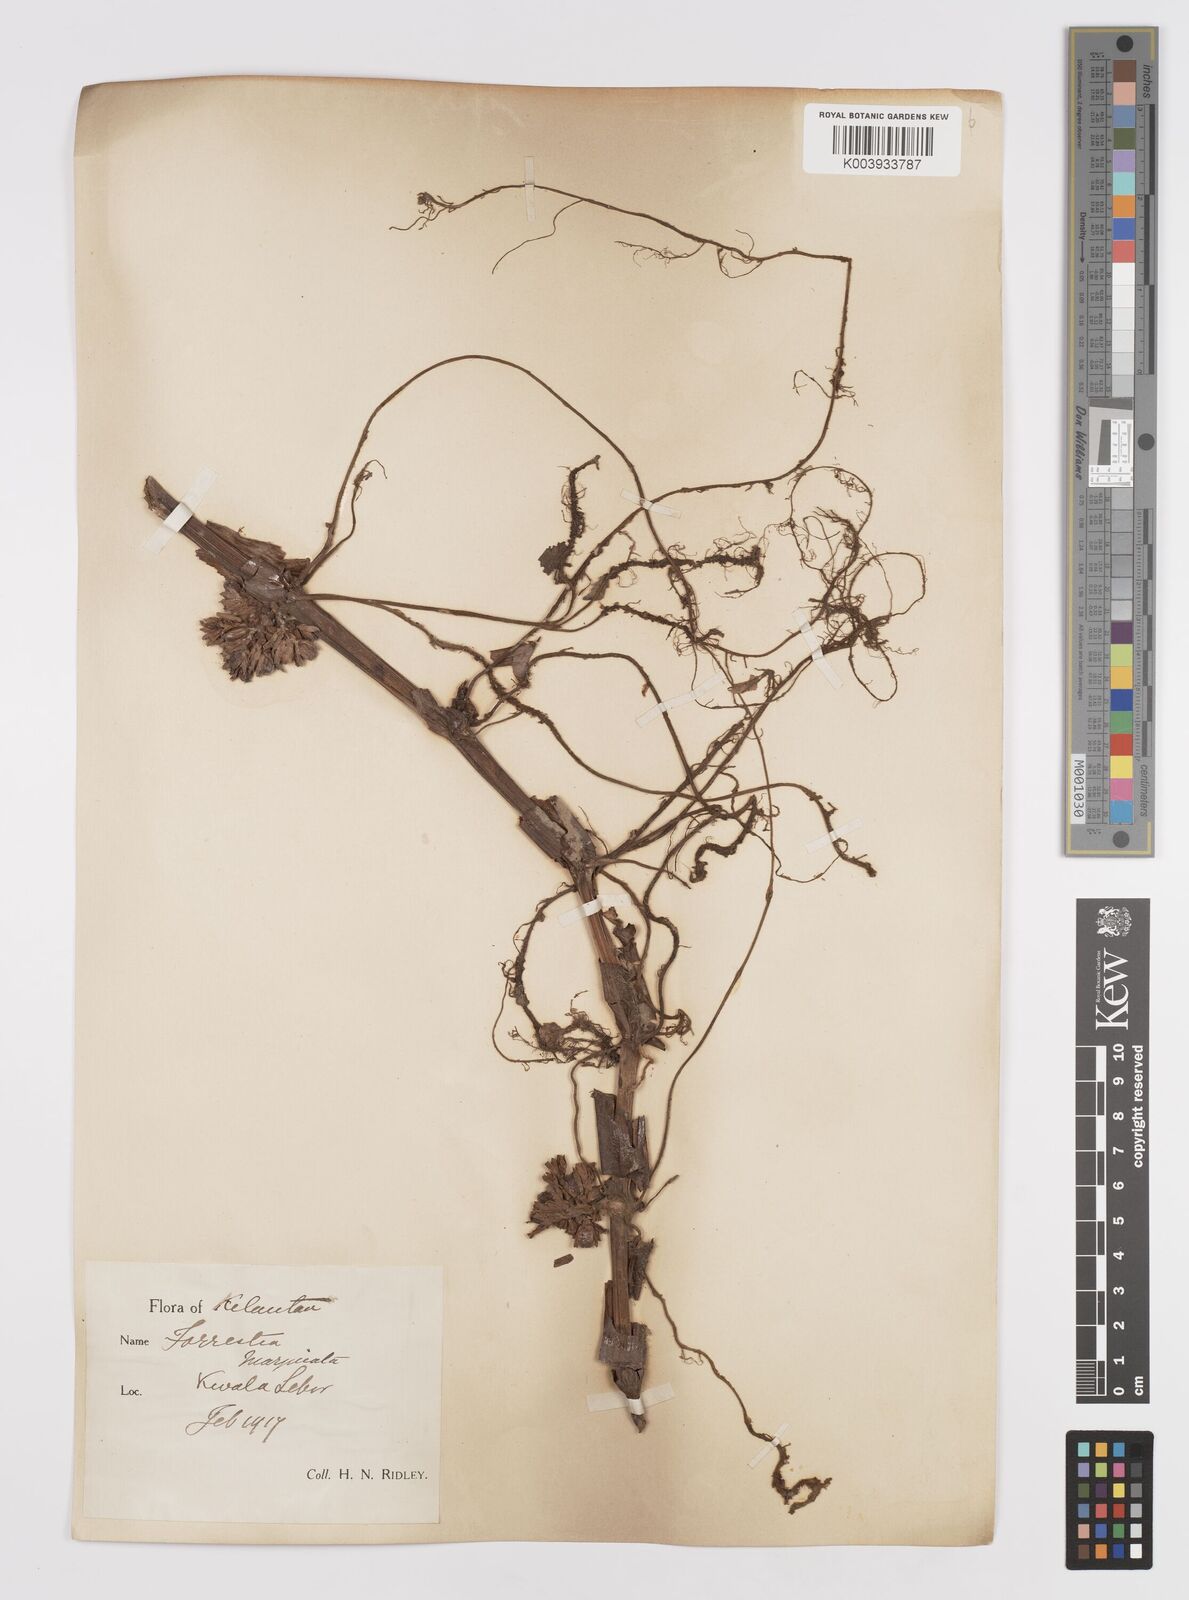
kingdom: Plantae
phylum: Tracheophyta
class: Liliopsida
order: Commelinales
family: Commelinaceae
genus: Amischotolype
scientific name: Amischotolype marginata
